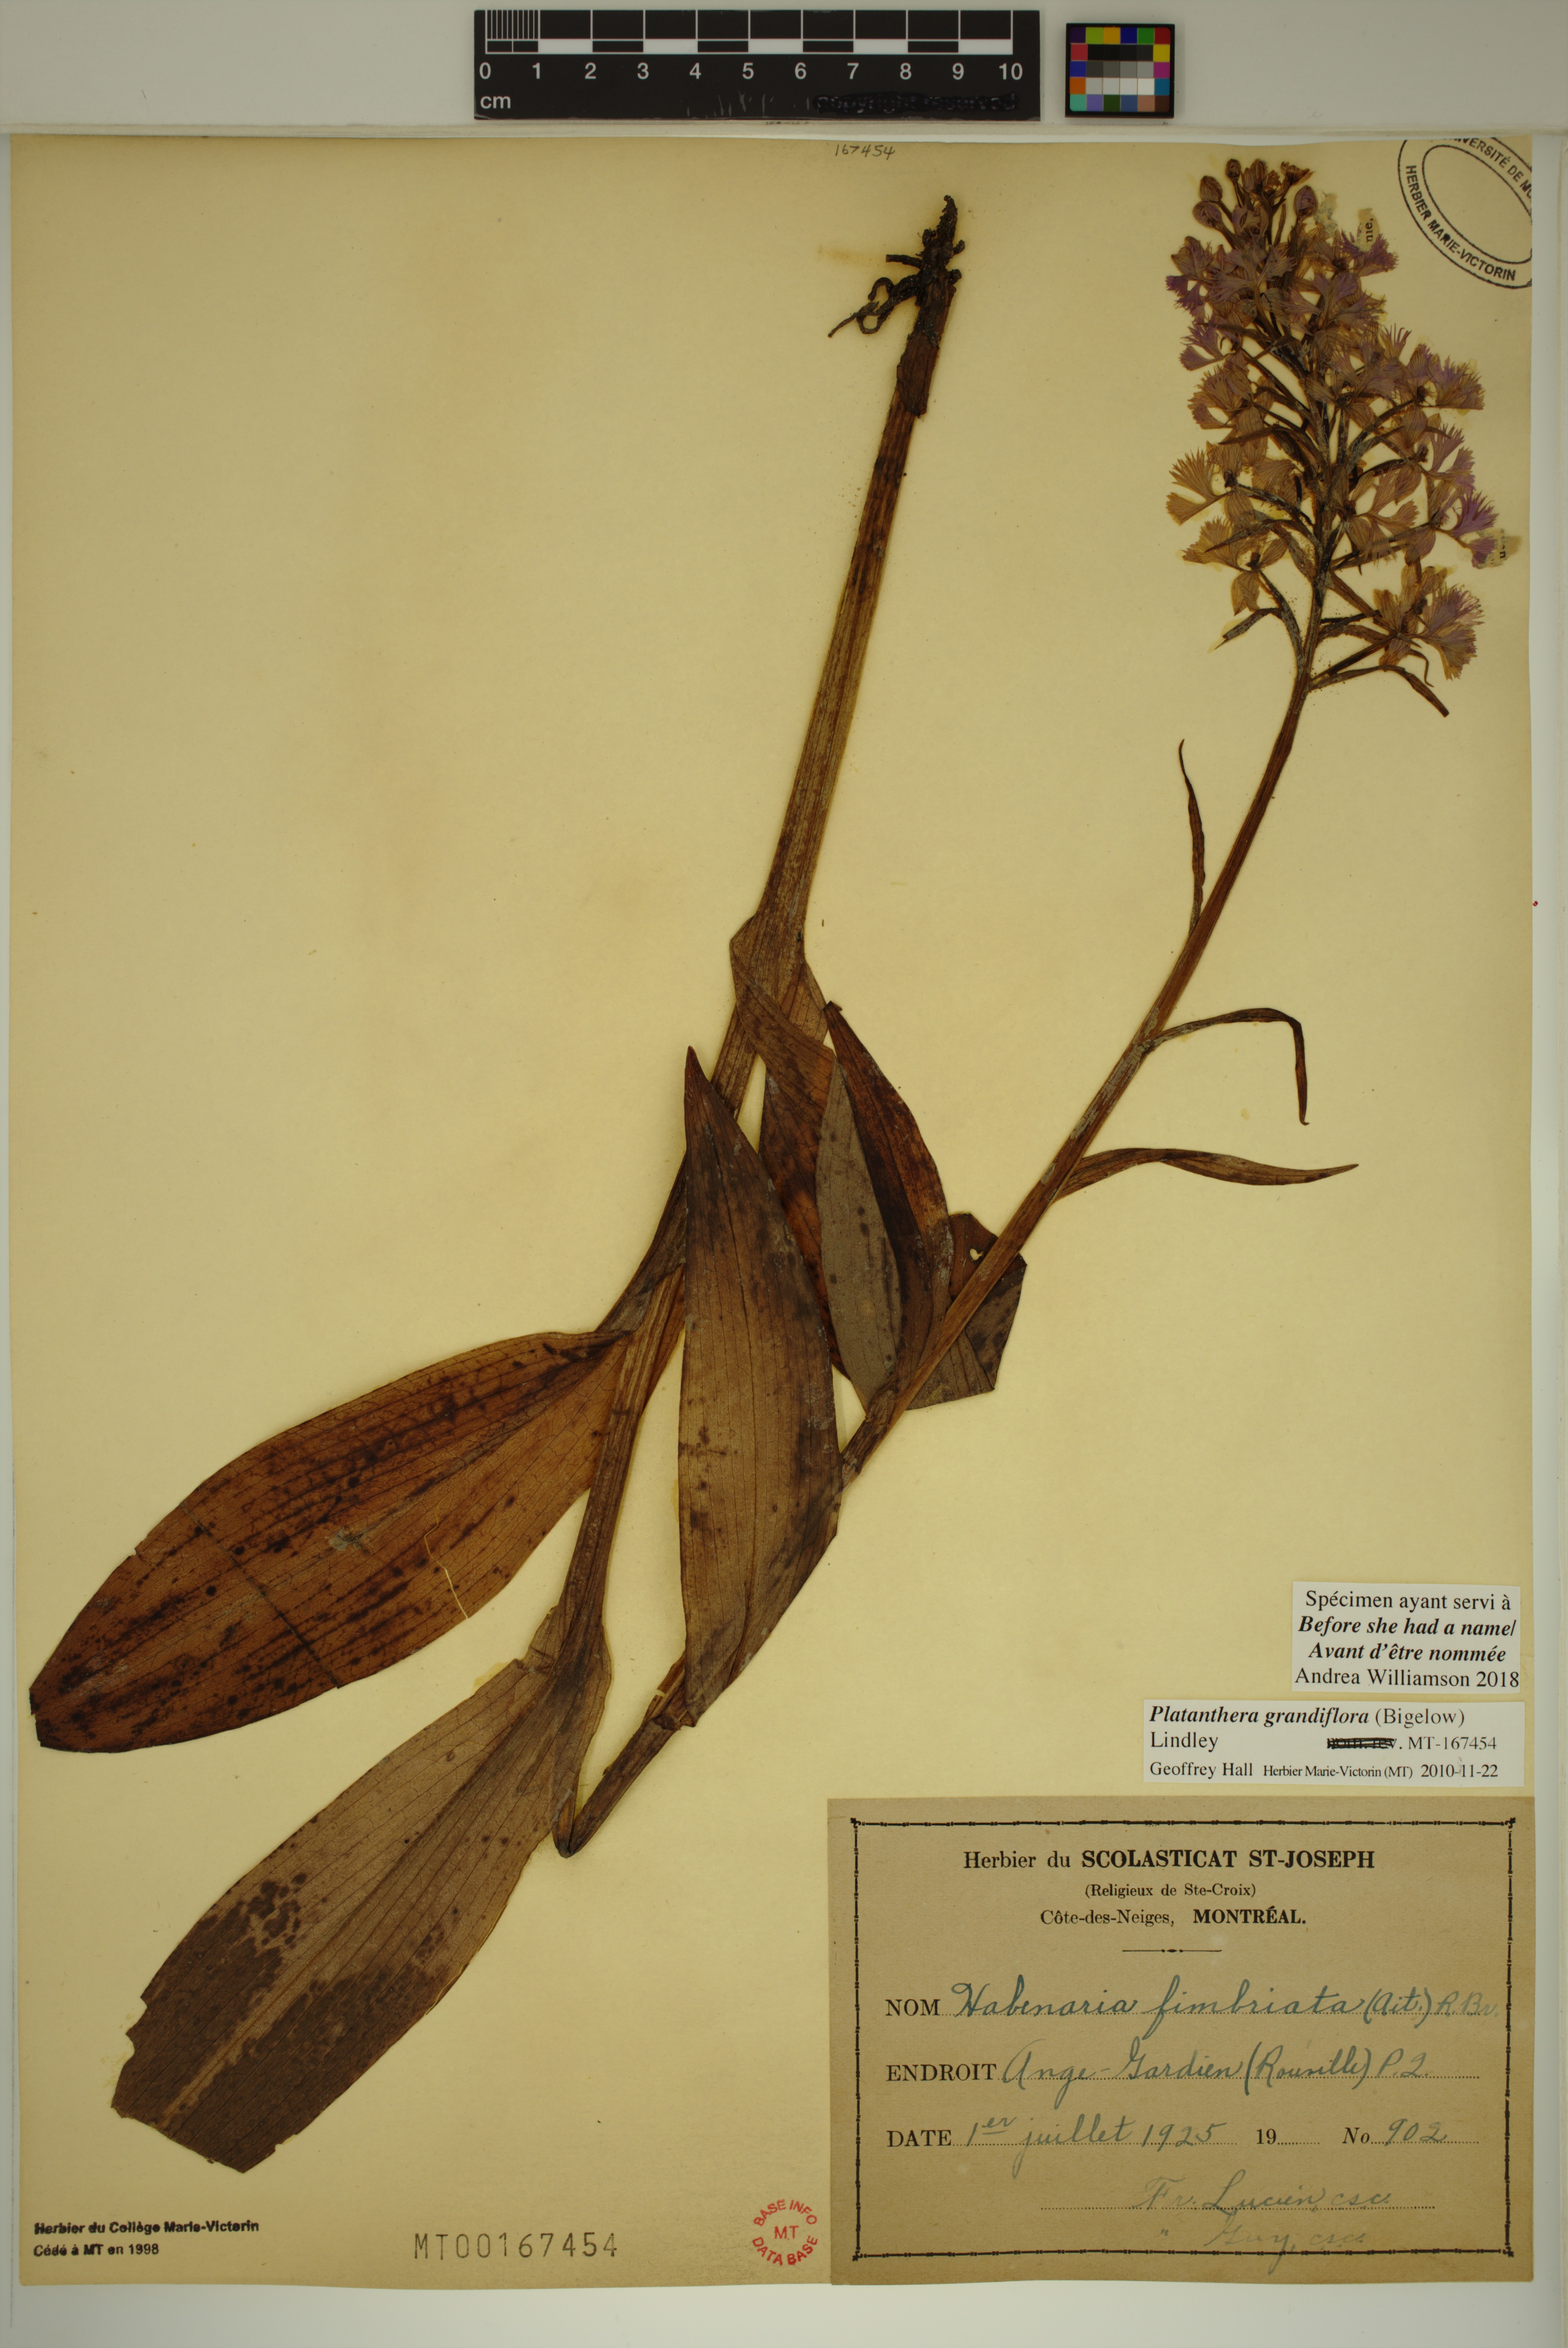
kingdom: Plantae
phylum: Tracheophyta
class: Liliopsida
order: Asparagales
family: Orchidaceae
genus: Platanthera
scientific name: Platanthera grandiflora
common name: Greater purple fringed orchid
